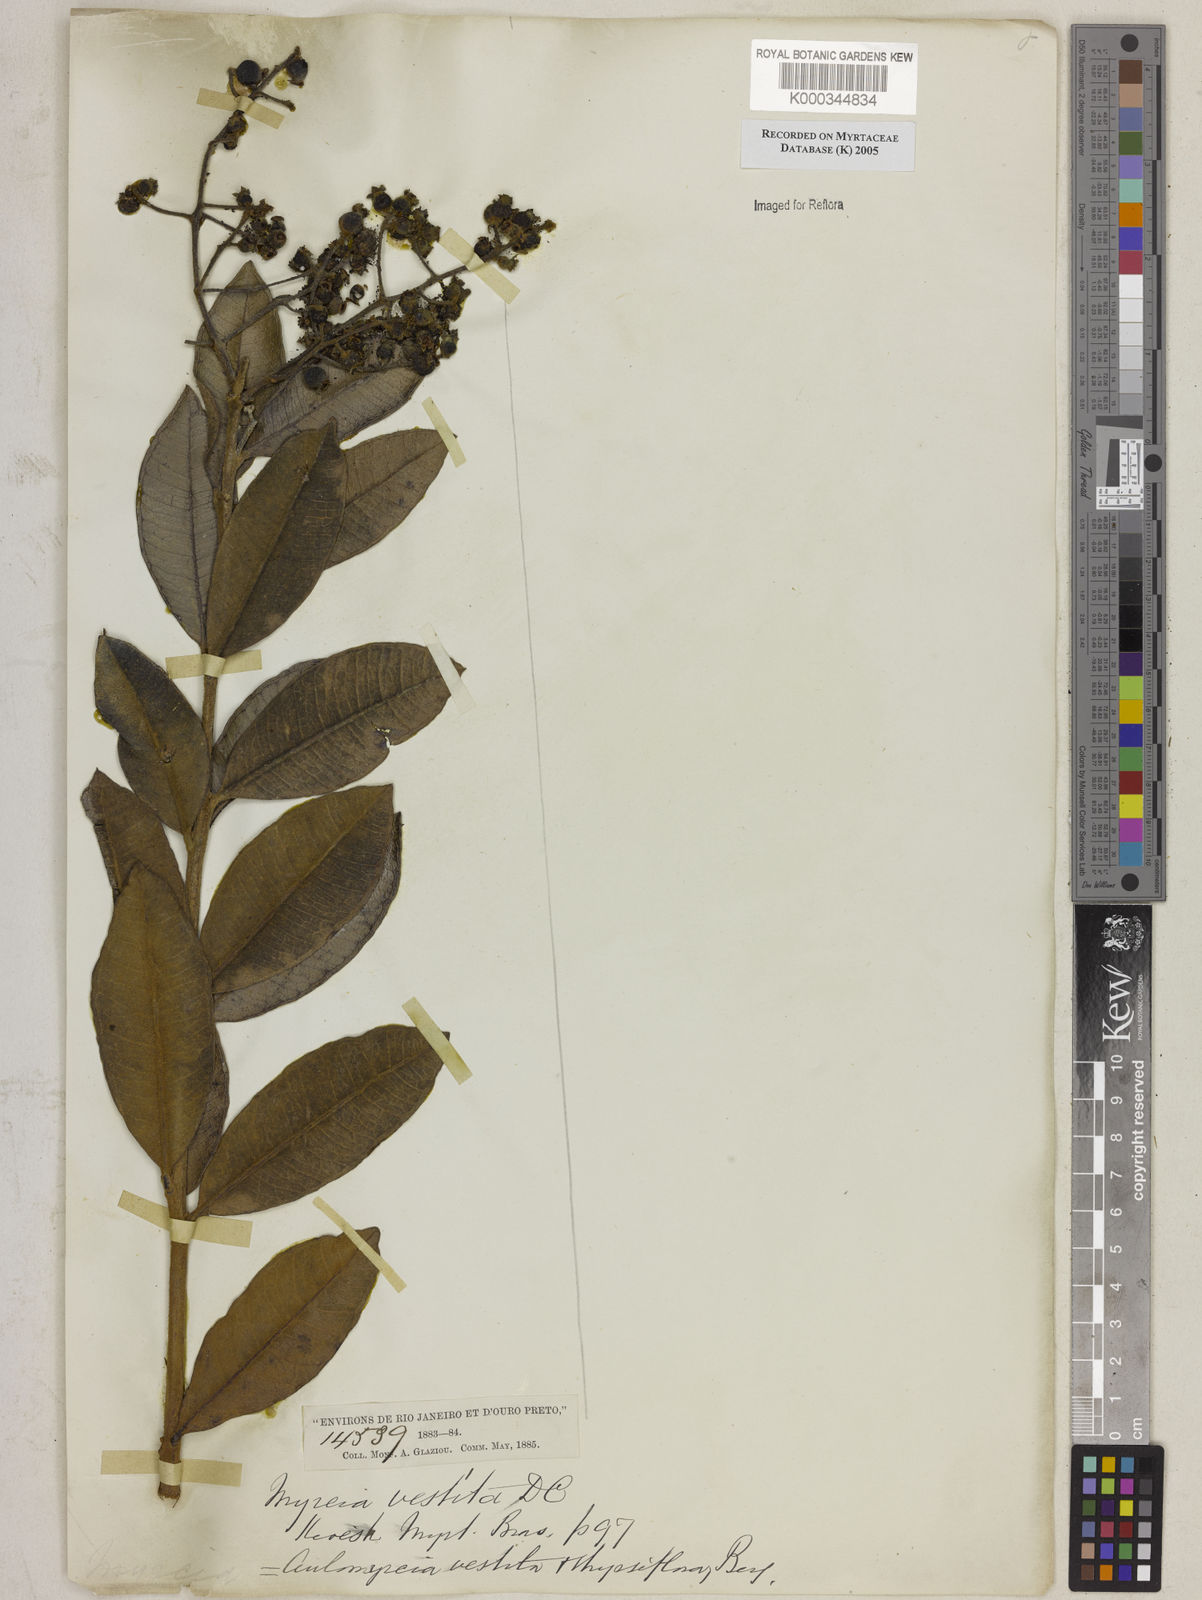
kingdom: Plantae
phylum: Tracheophyta
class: Magnoliopsida
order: Myrtales
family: Myrtaceae
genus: Myrcia
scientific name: Myrcia vestita
